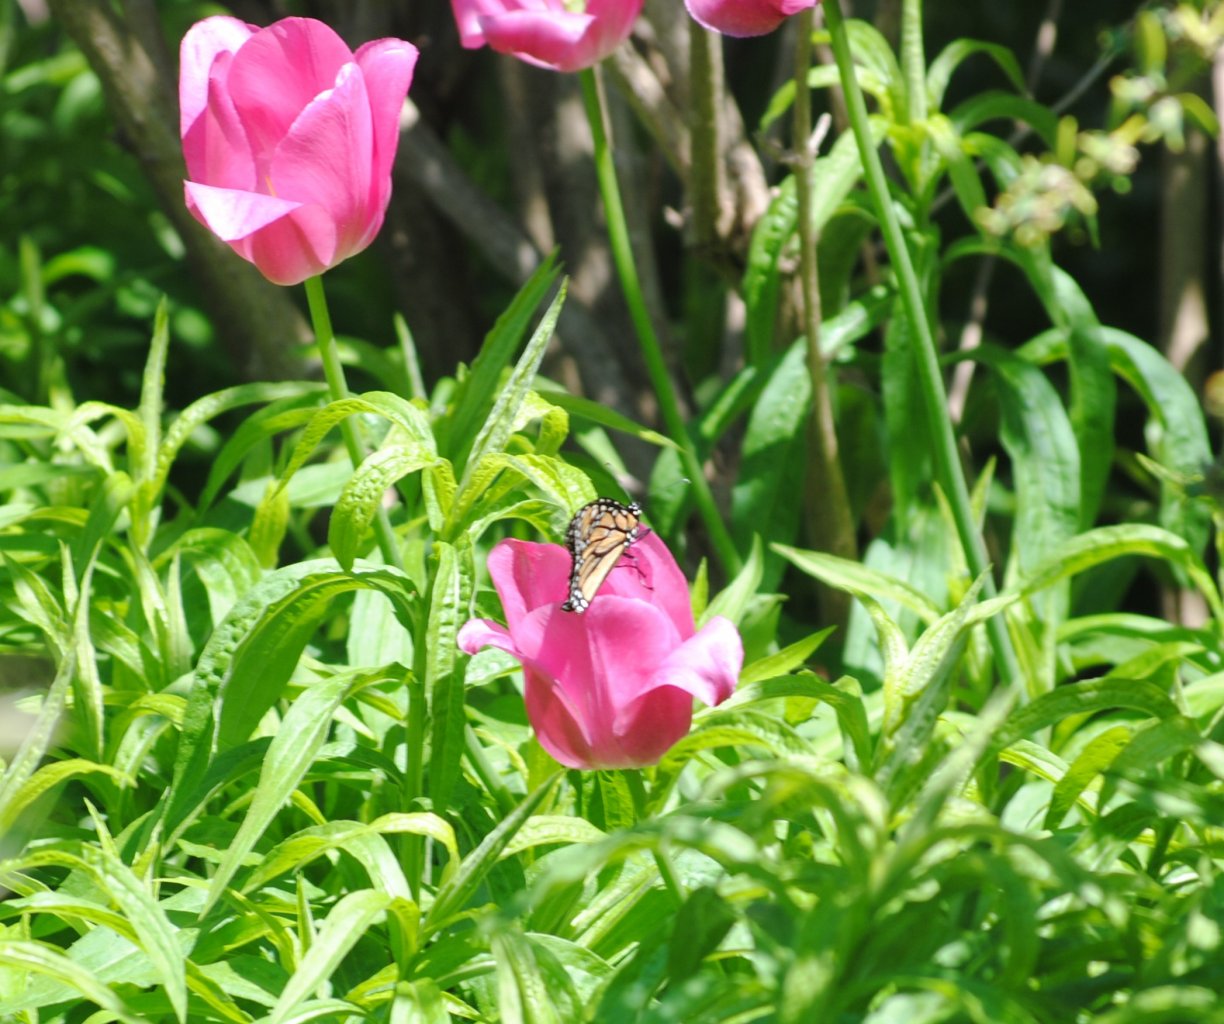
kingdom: Animalia
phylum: Arthropoda
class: Insecta
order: Lepidoptera
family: Nymphalidae
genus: Danaus
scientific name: Danaus plexippus
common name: Monarch
